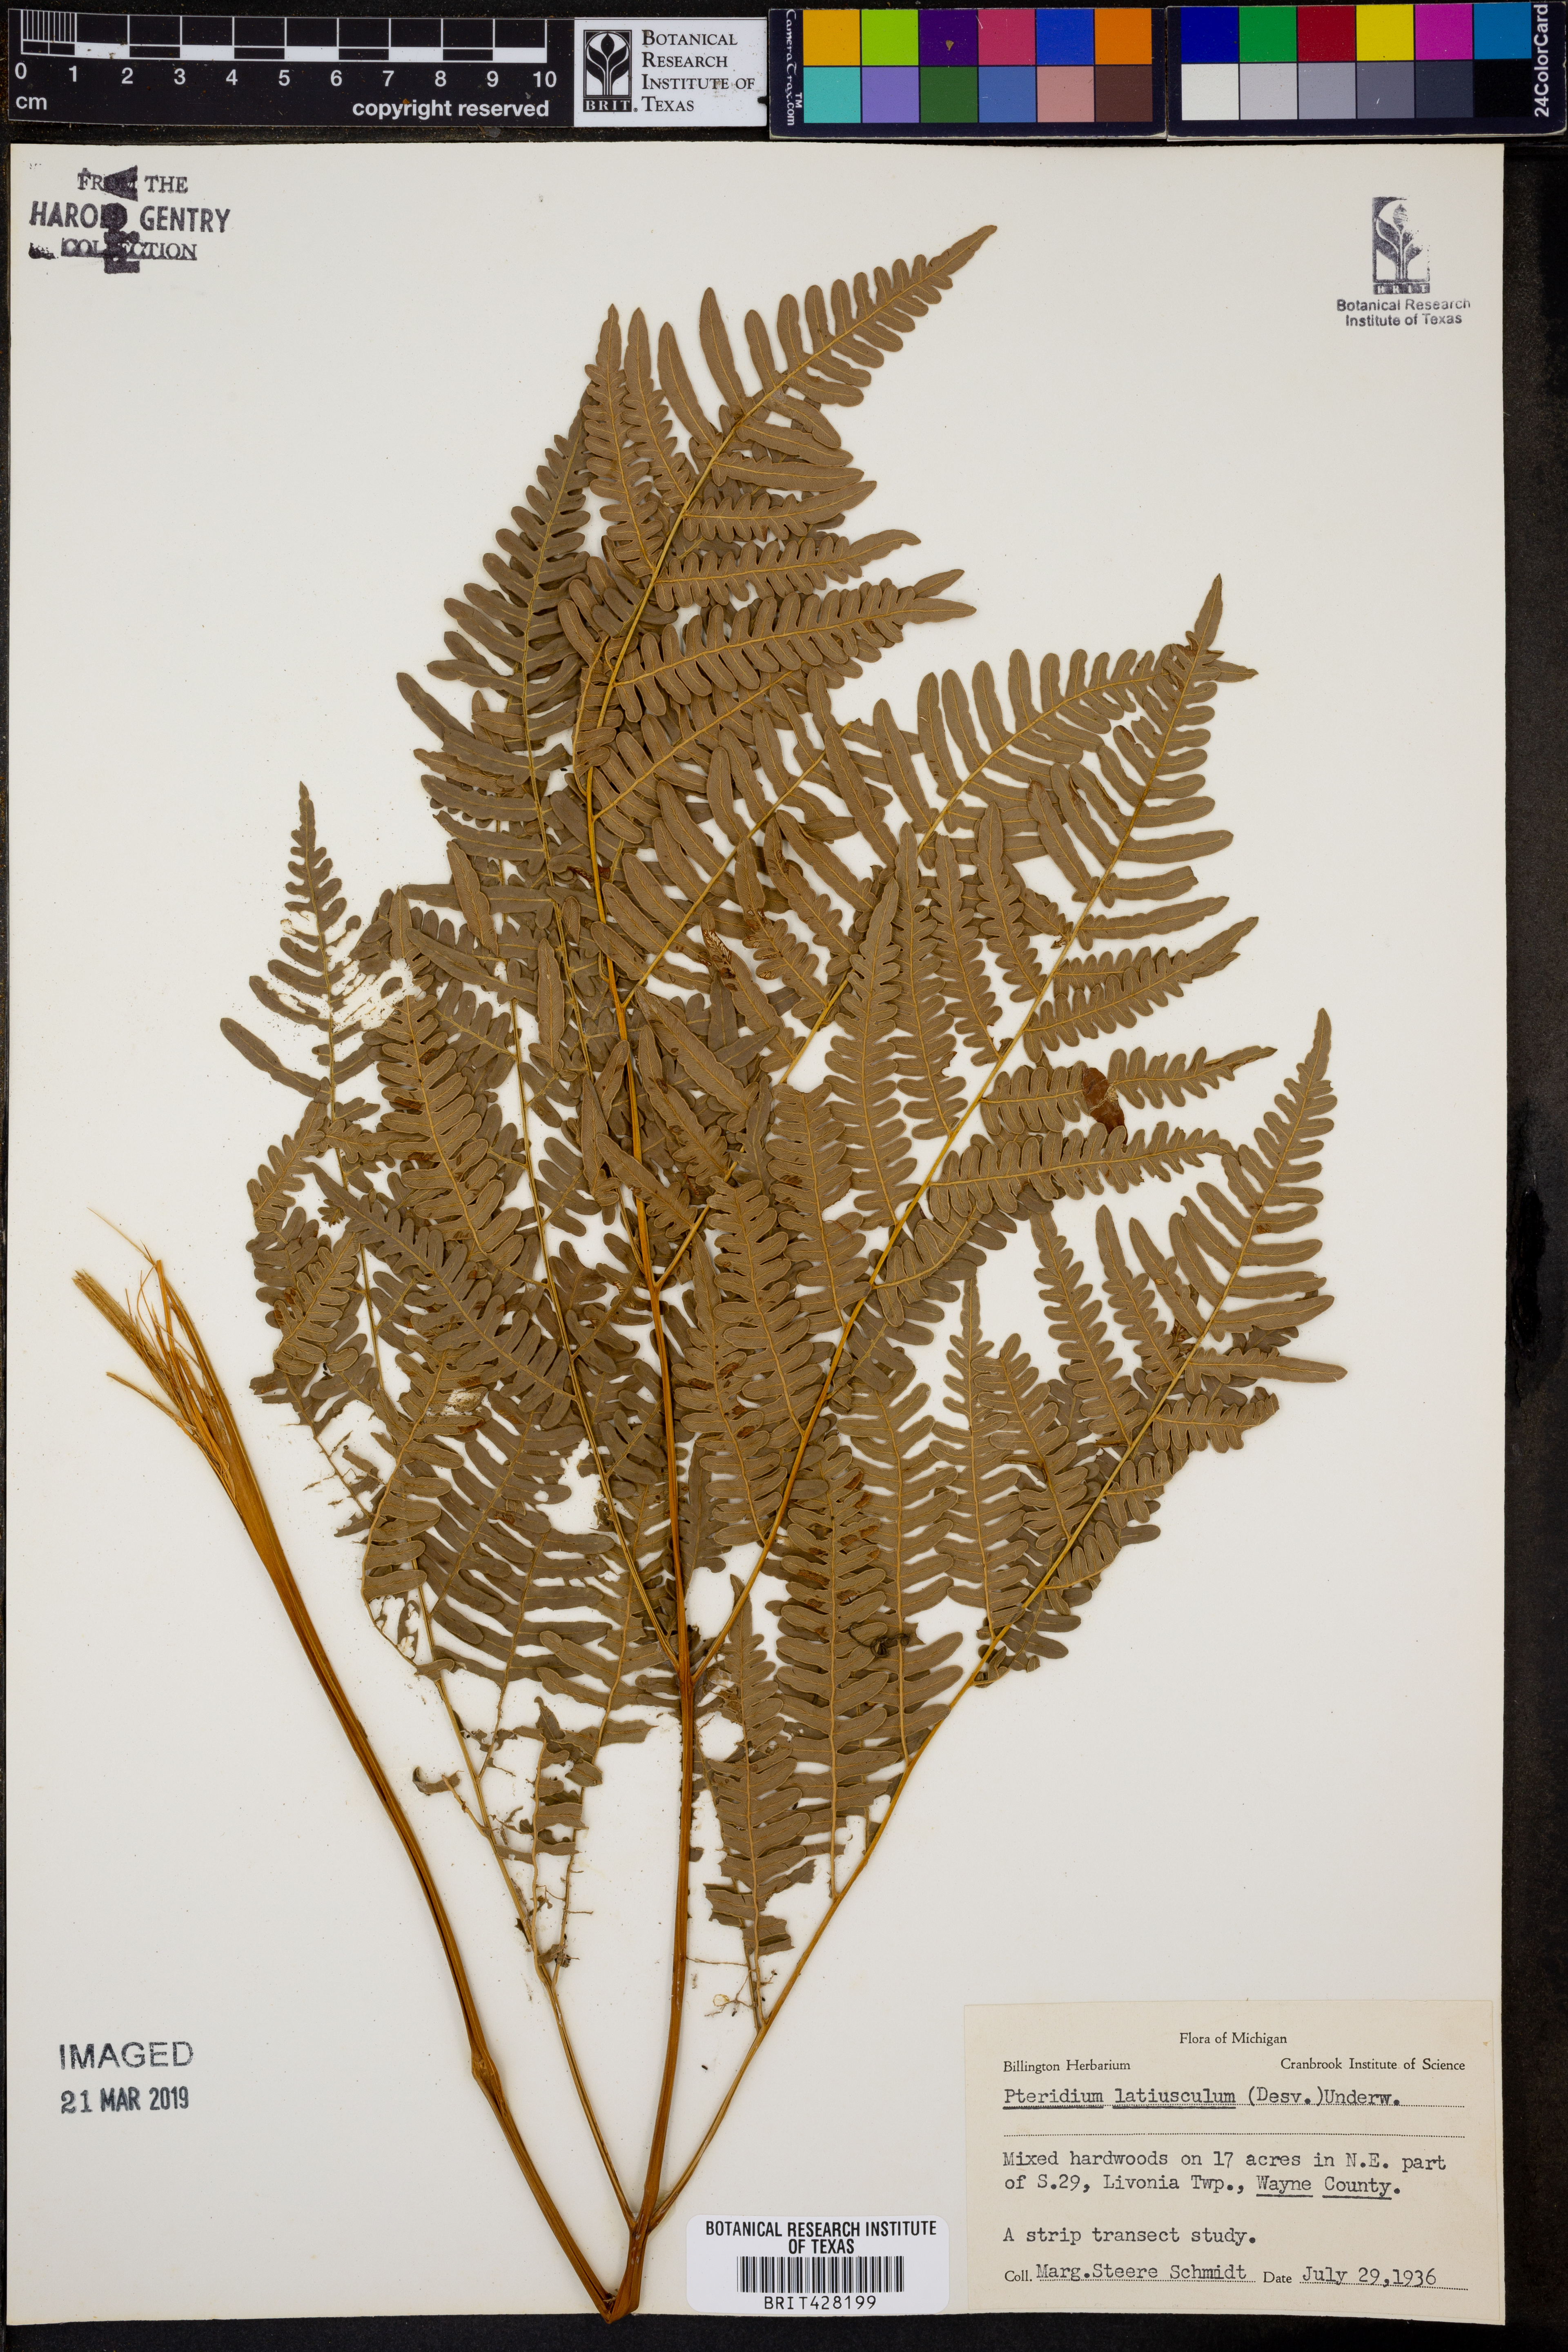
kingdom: Plantae
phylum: Tracheophyta
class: Polypodiopsida
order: Polypodiales
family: Dennstaedtiaceae
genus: Pteridium
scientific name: Pteridium aquilinum
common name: Bracken
